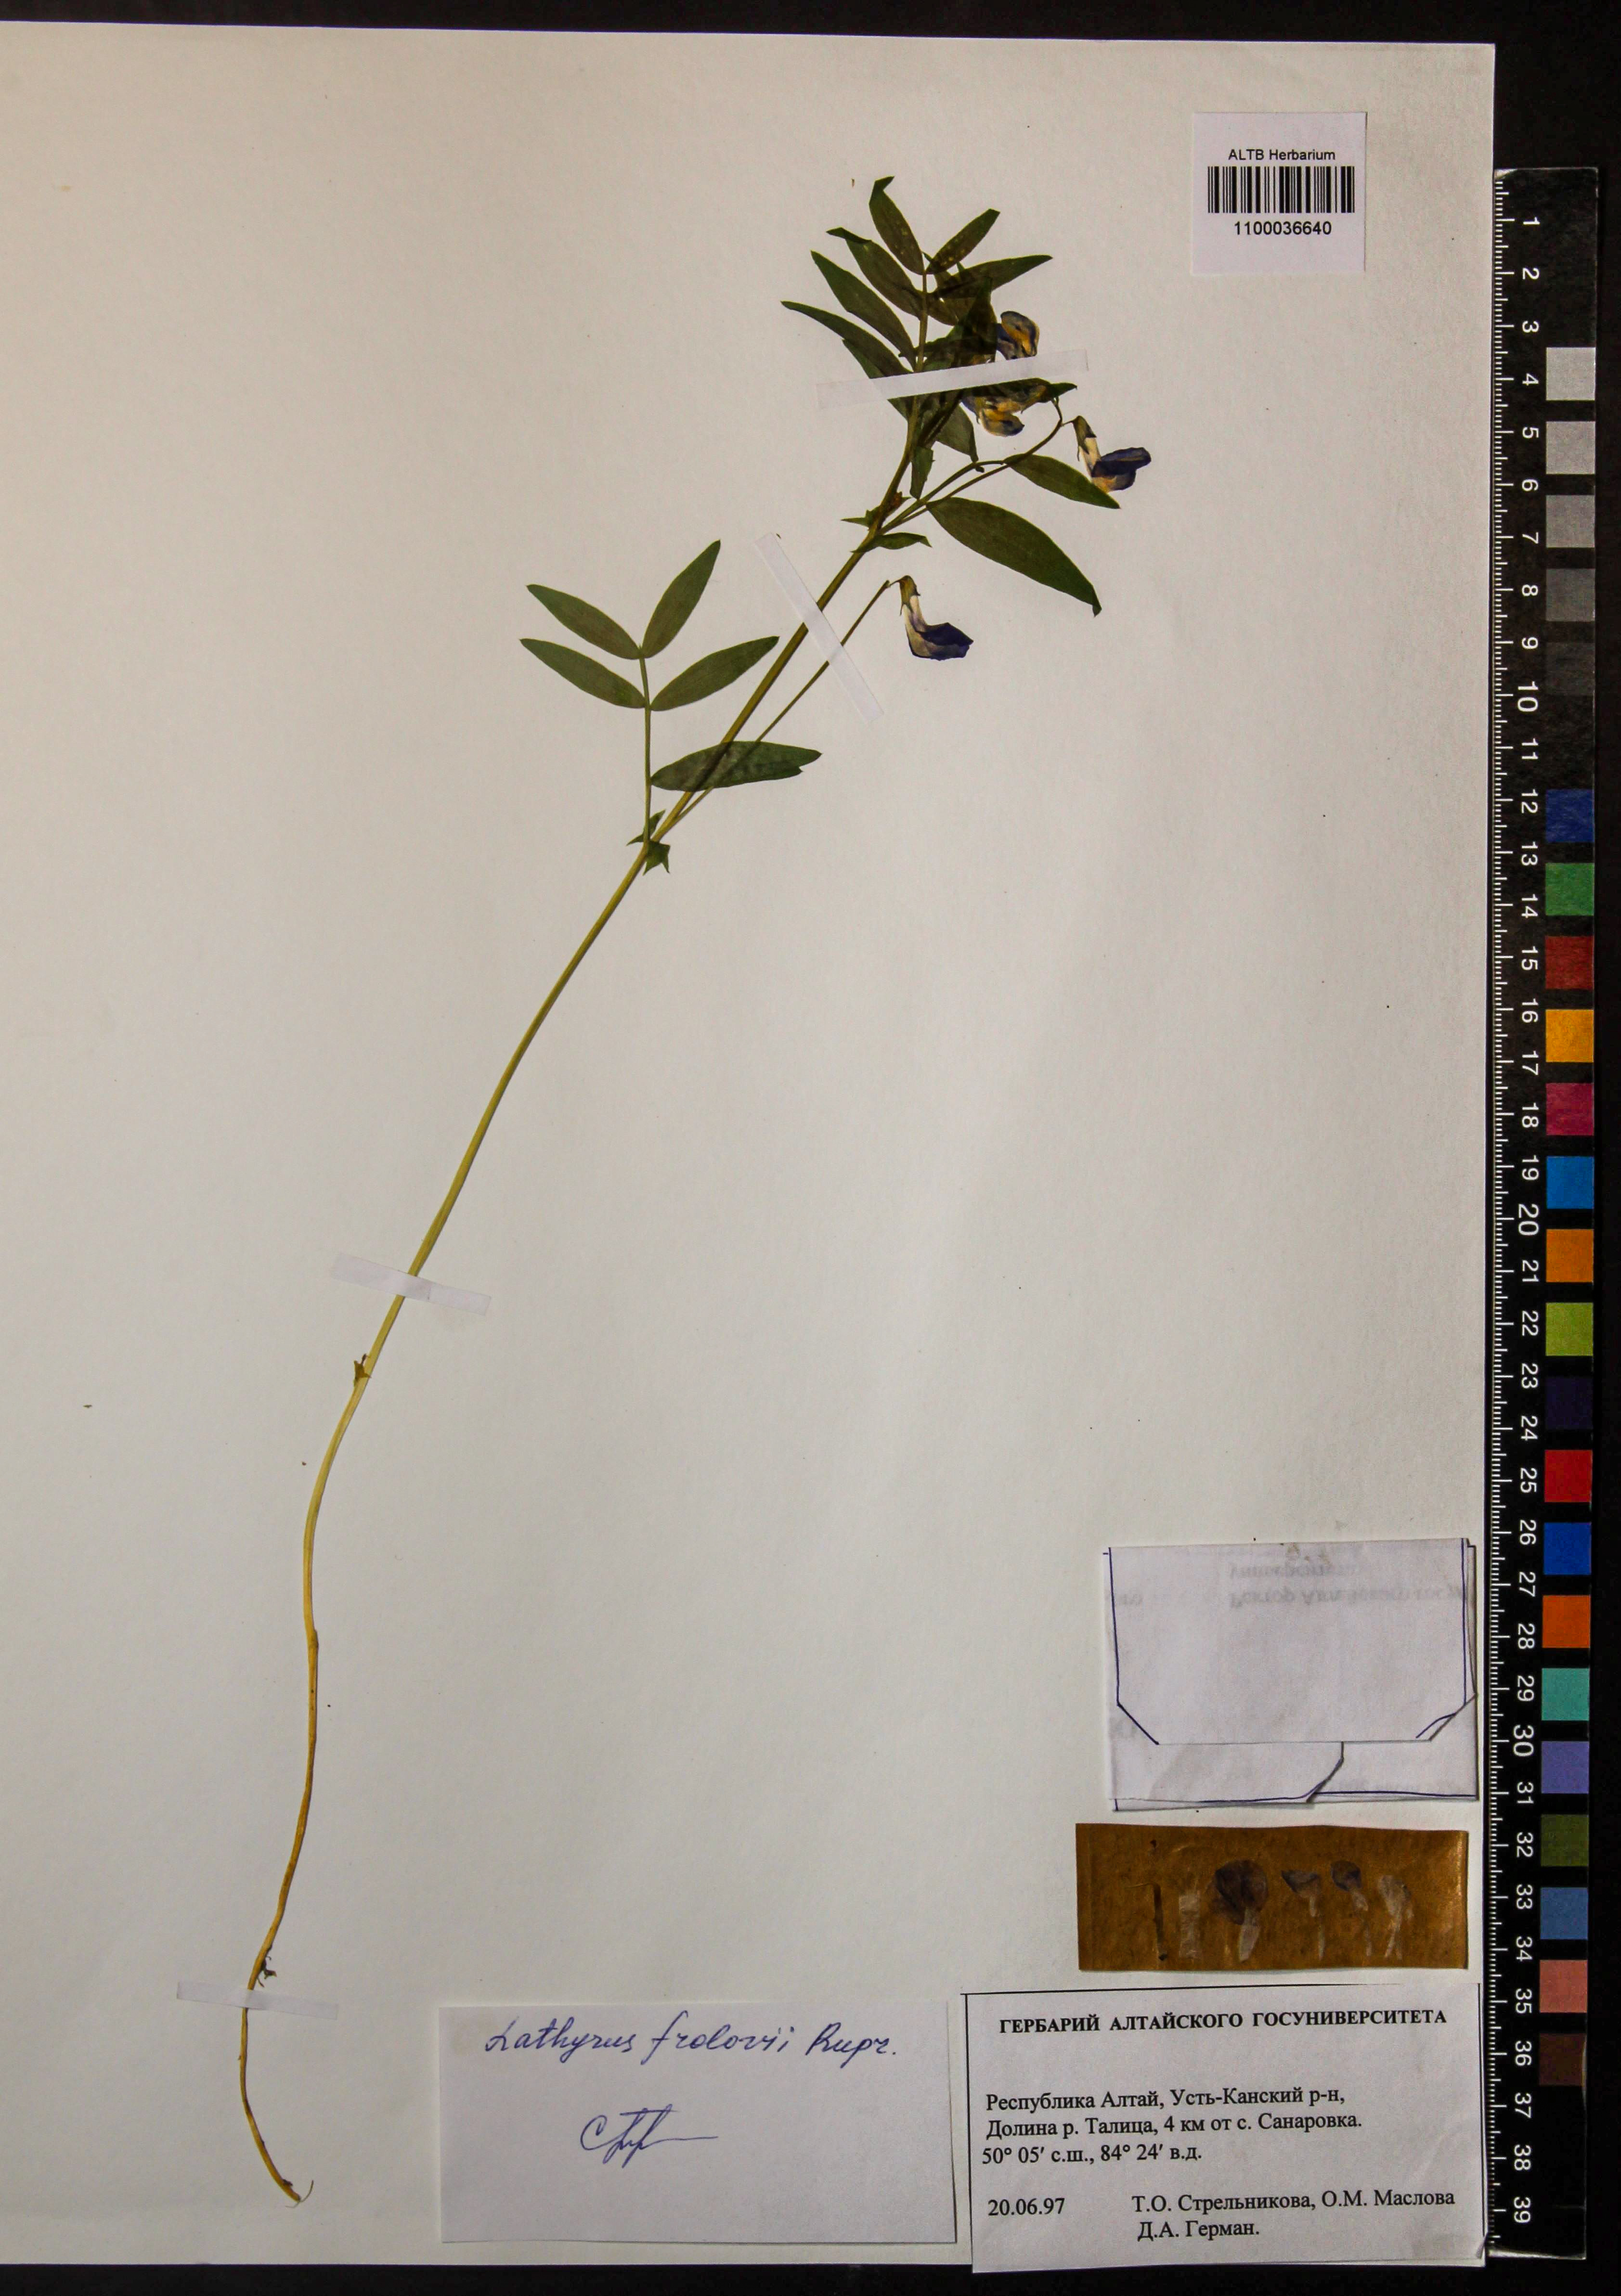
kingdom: Plantae
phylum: Tracheophyta
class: Magnoliopsida
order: Fabales
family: Fabaceae
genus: Lathyrus
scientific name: Lathyrus frolovii
